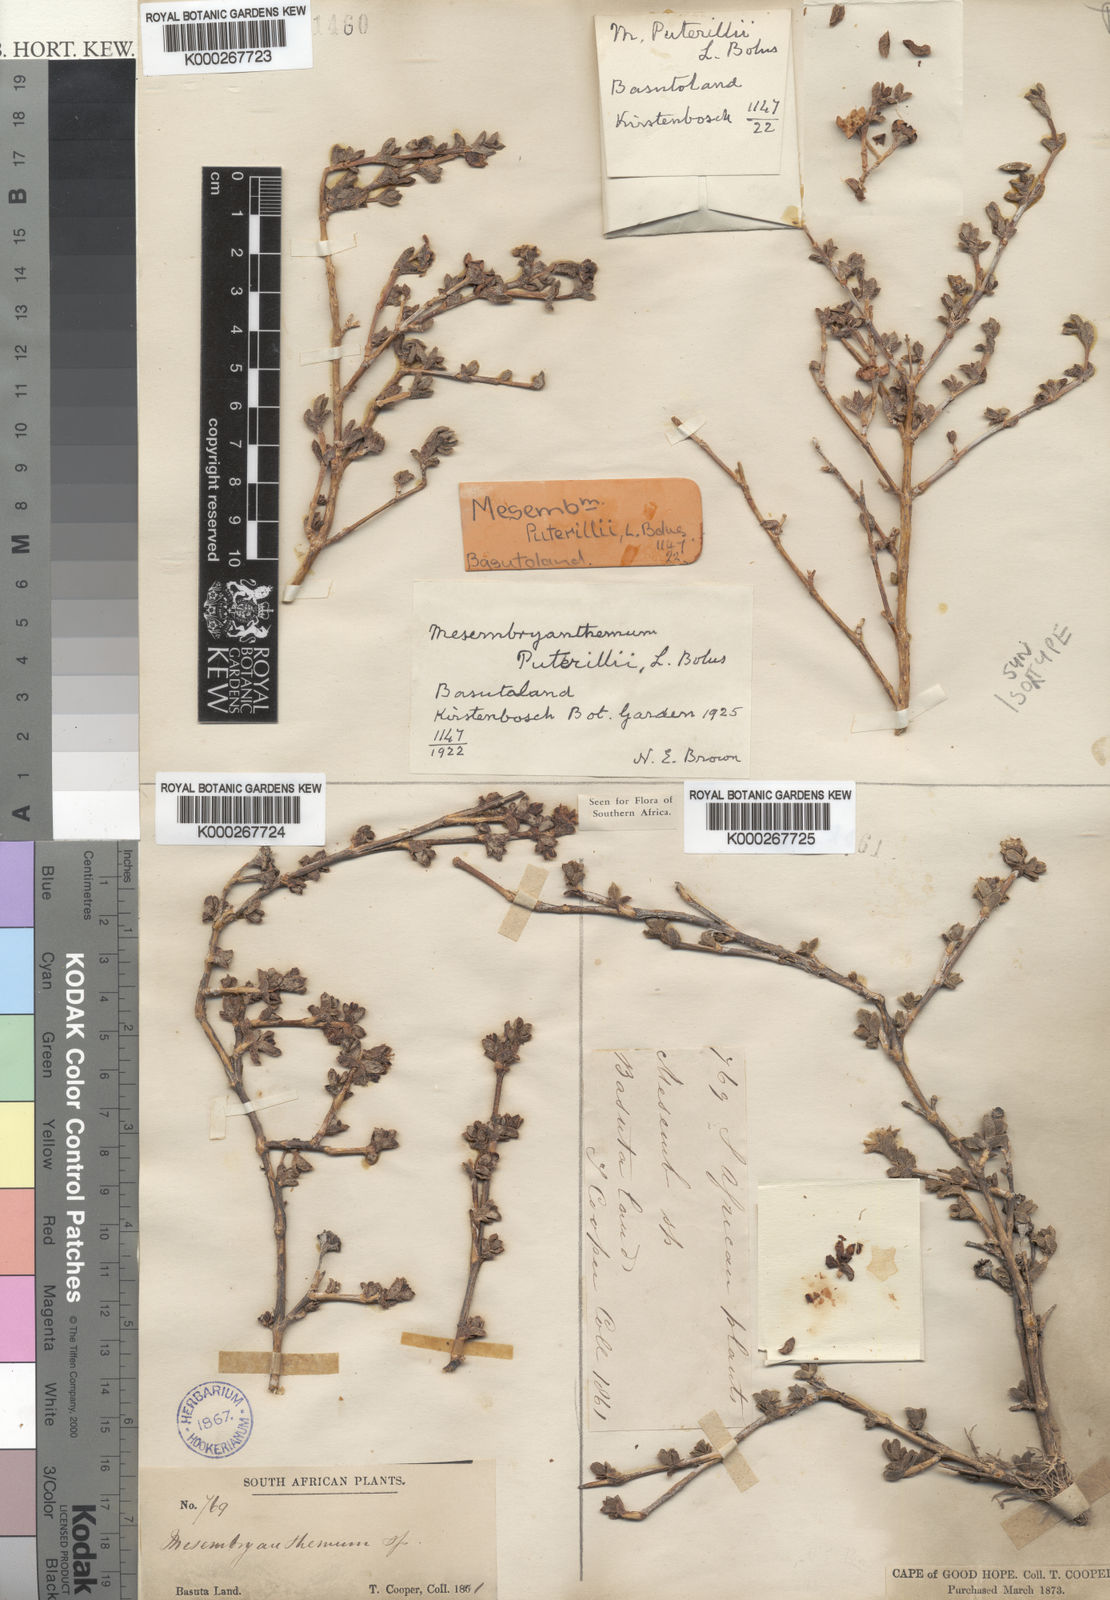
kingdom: Plantae
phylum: Tracheophyta
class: Magnoliopsida
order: Caryophyllales
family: Aizoaceae
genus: Ruschia
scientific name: Ruschia putterillii
